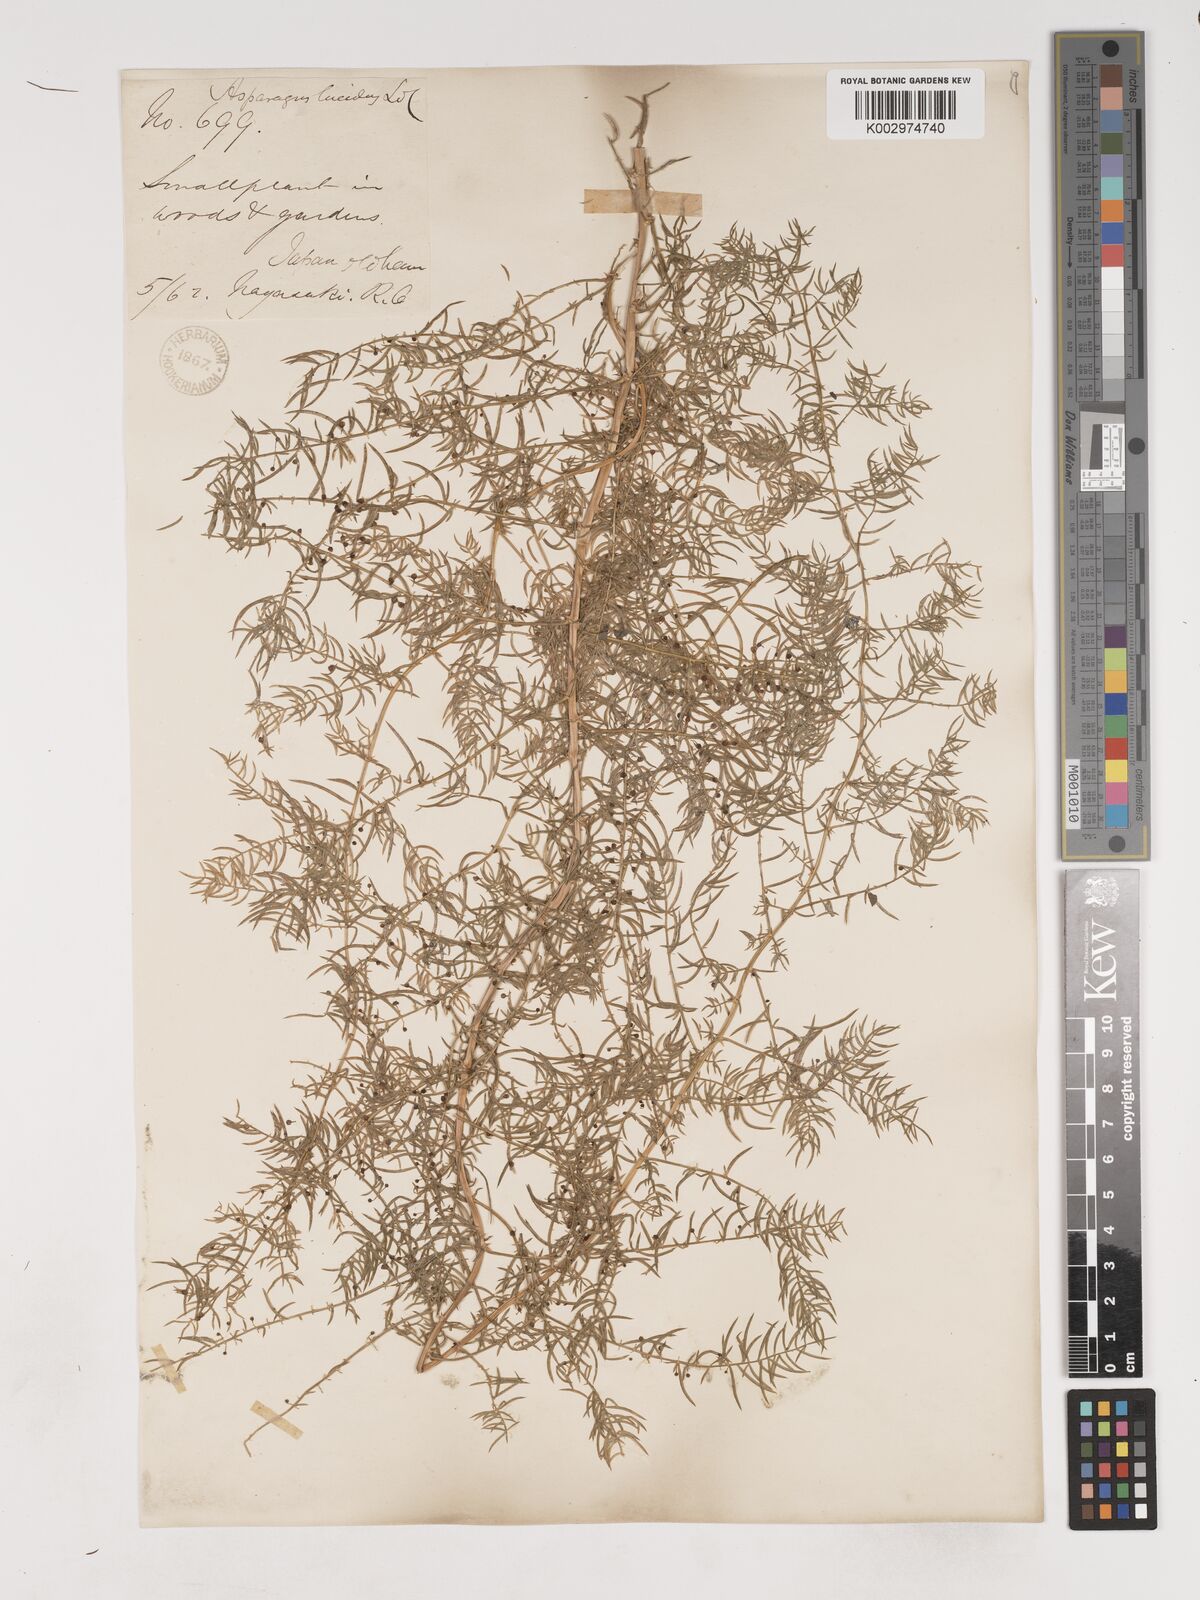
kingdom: Plantae
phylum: Tracheophyta
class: Liliopsida
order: Asparagales
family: Asparagaceae
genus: Asparagus
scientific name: Asparagus cochinchinensis
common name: Chinese asparagus
